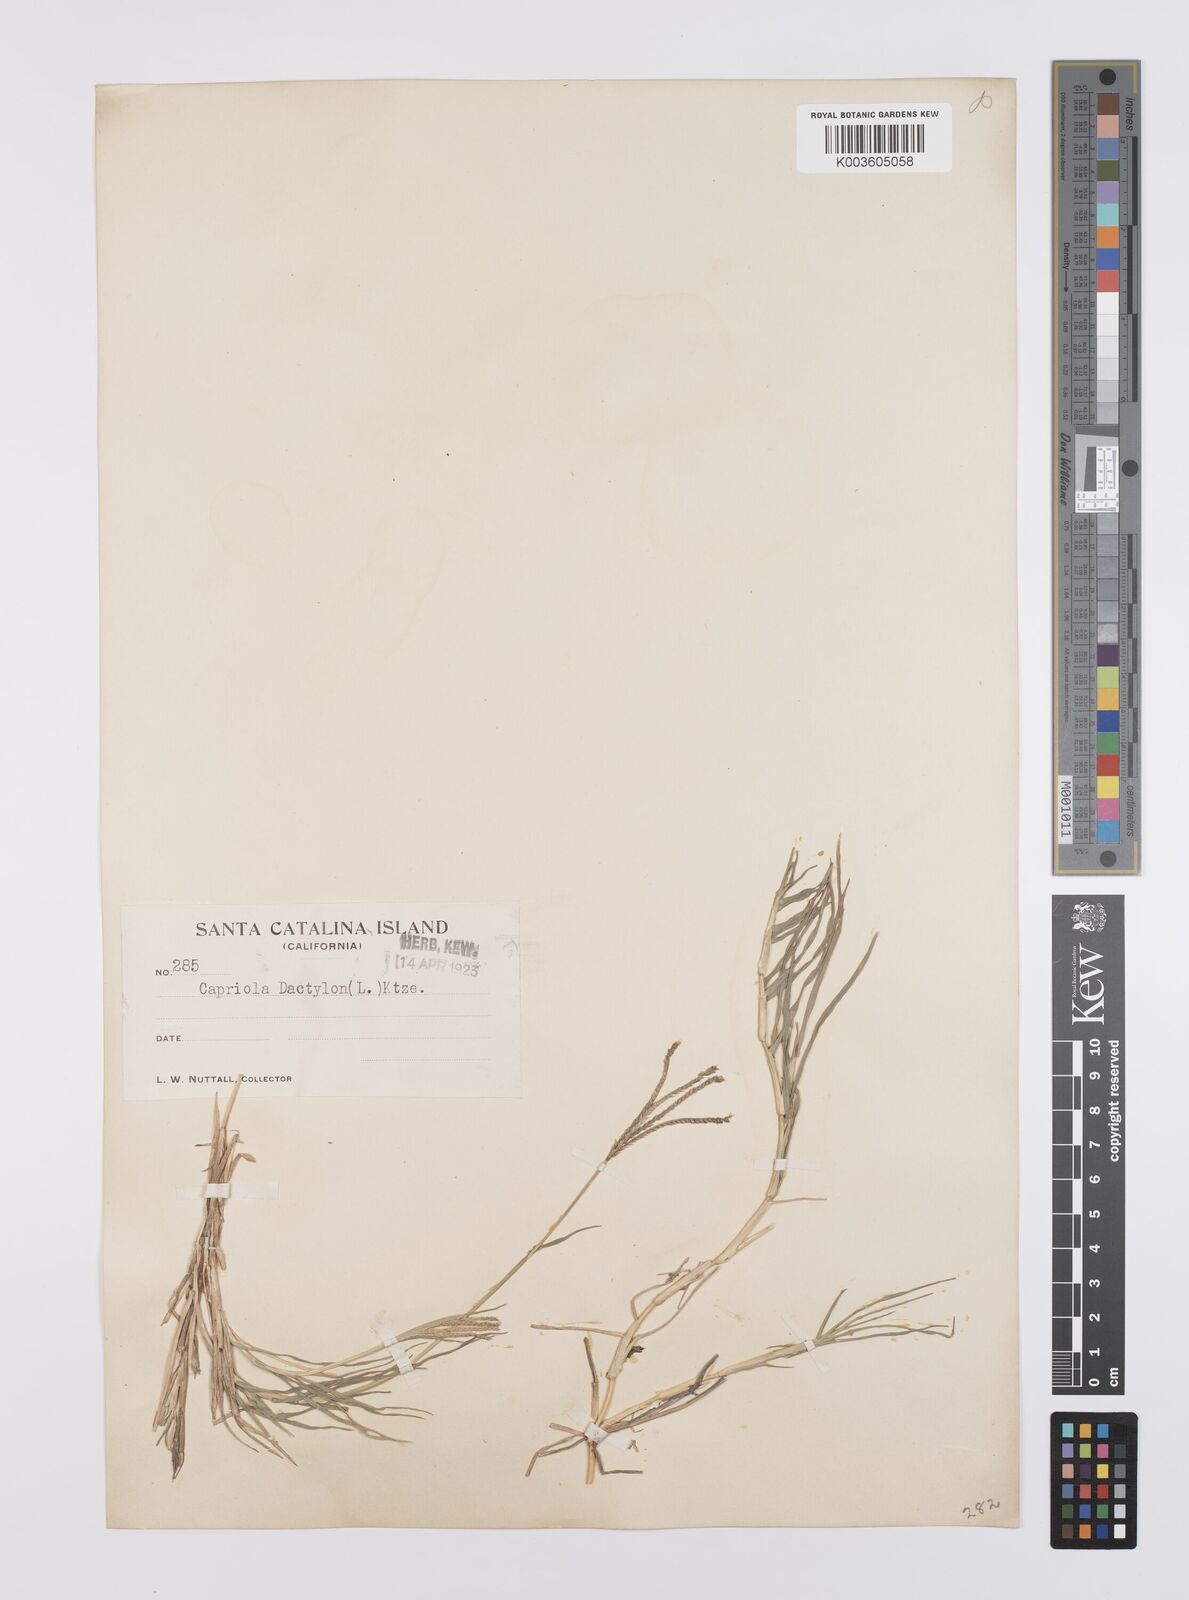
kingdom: Plantae
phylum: Tracheophyta
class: Liliopsida
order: Poales
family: Poaceae
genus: Cynodon
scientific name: Cynodon dactylon
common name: Bermuda grass
